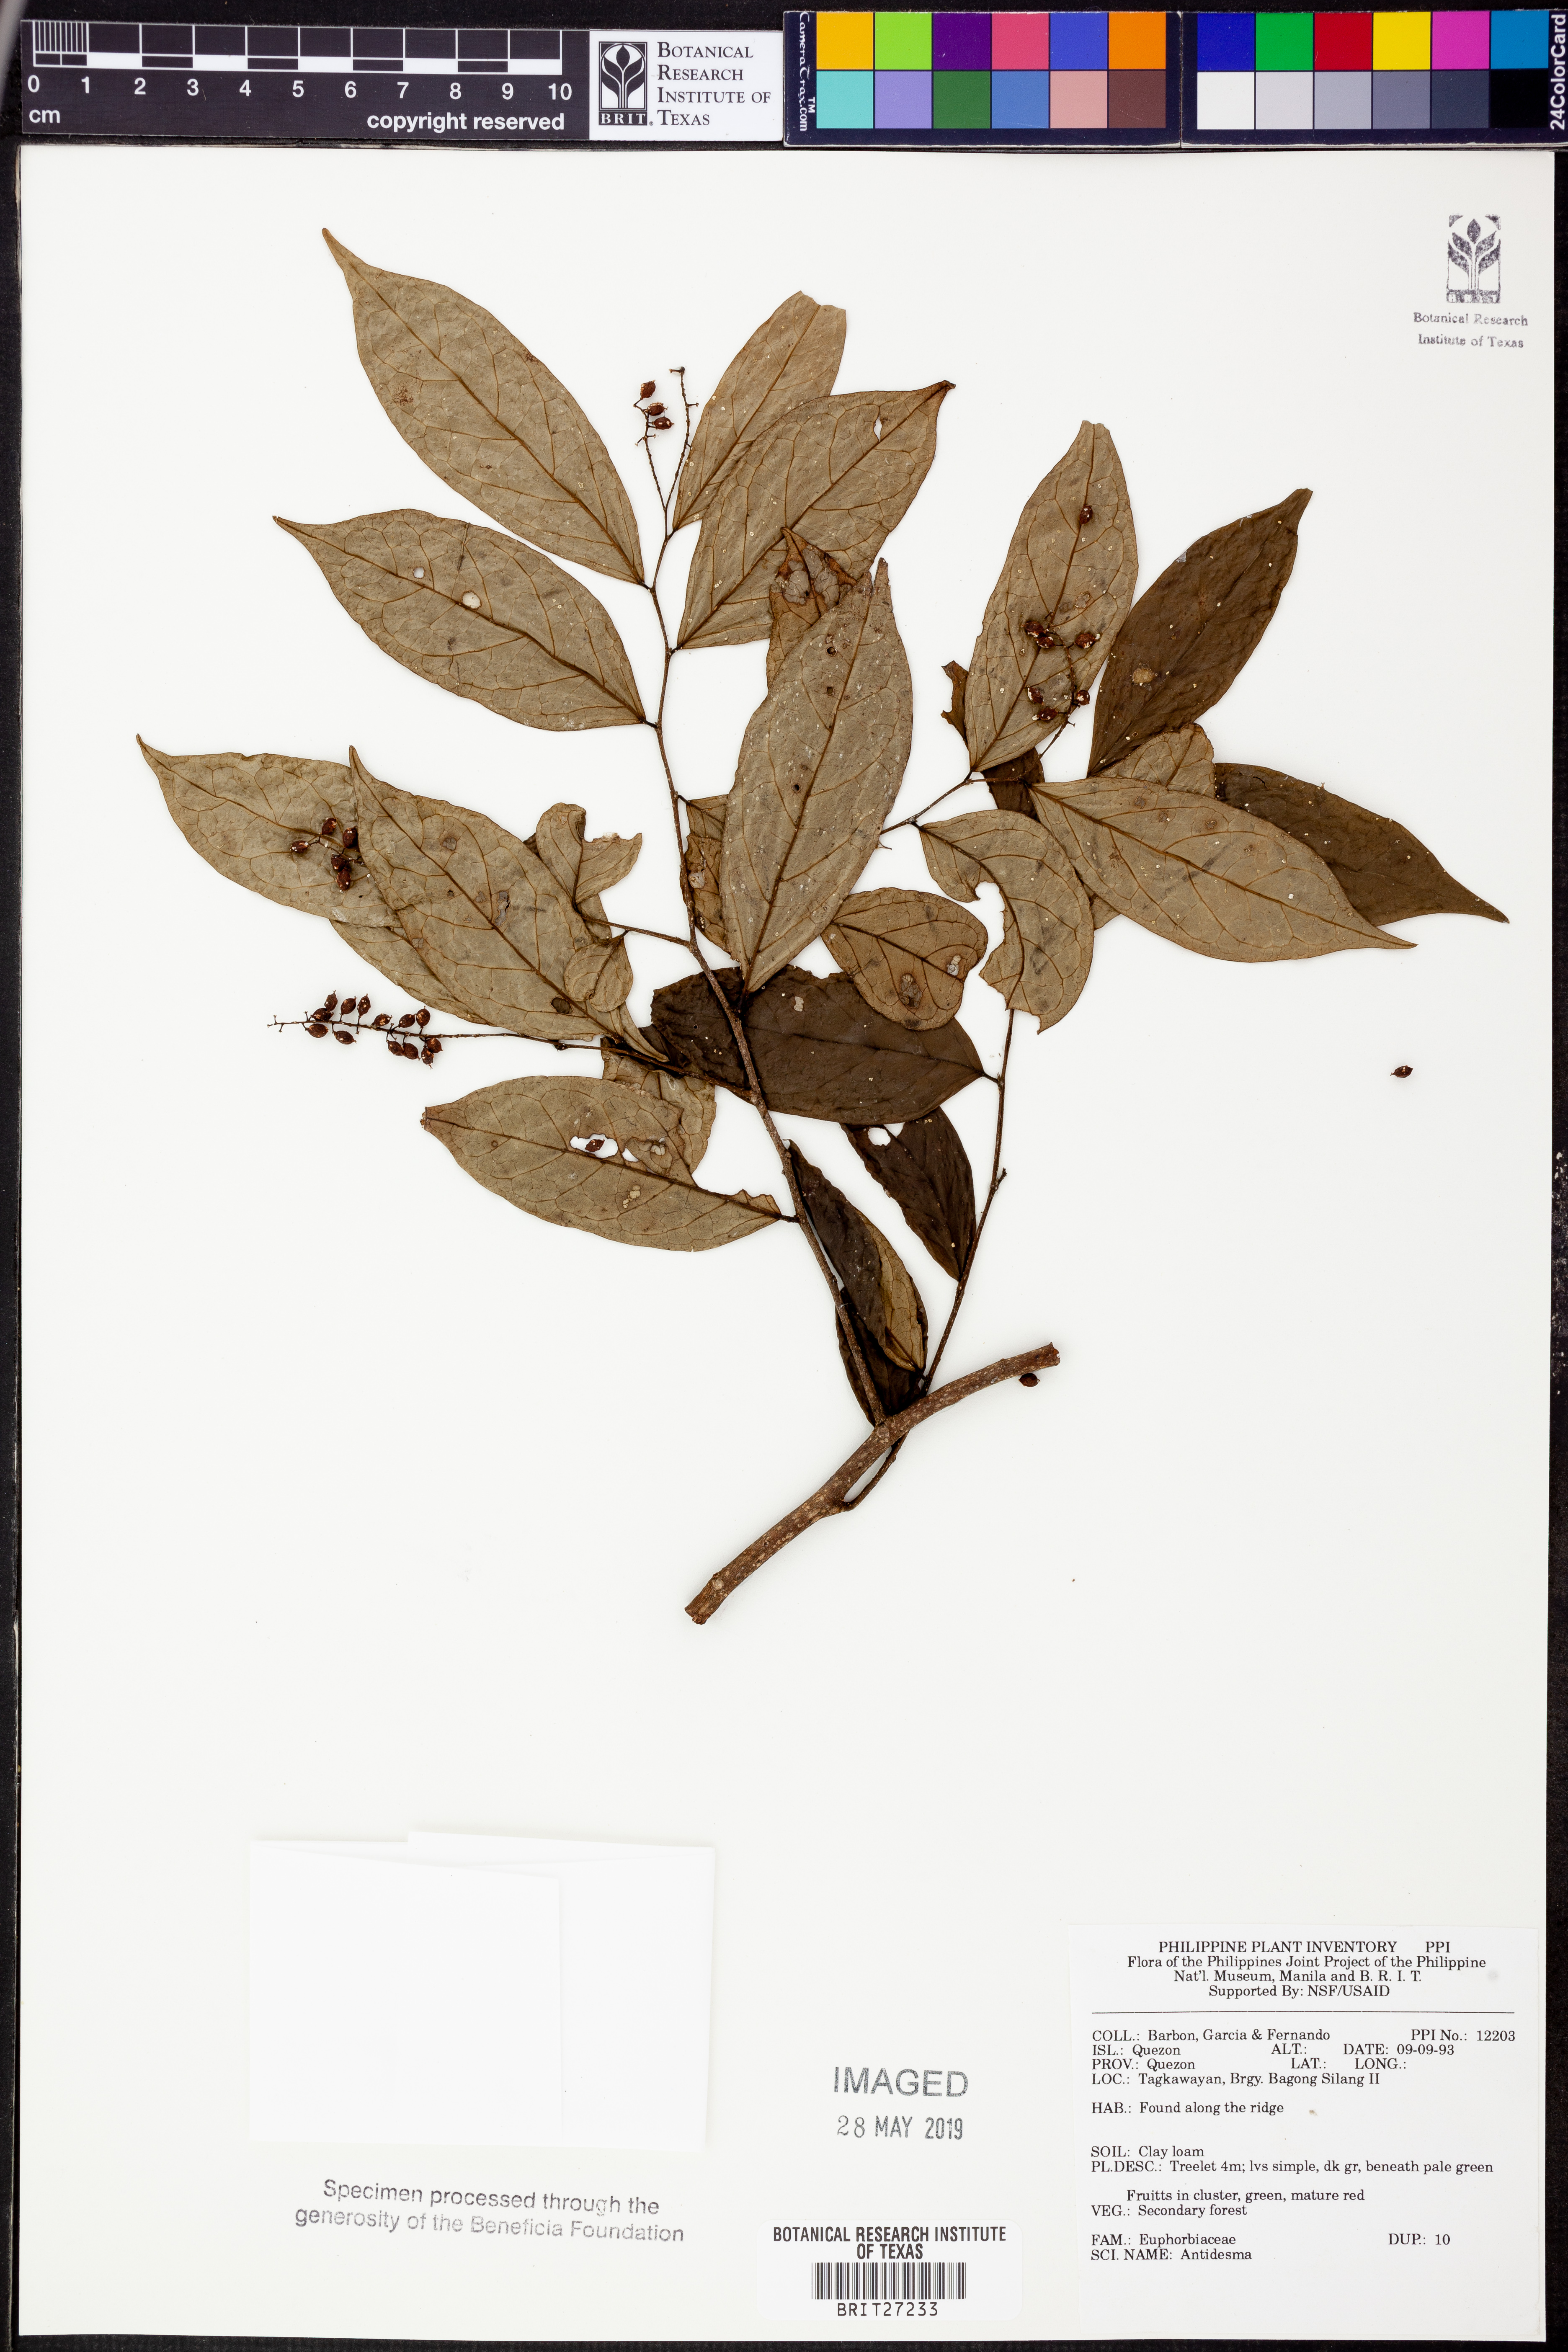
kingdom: Plantae
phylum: Tracheophyta
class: Magnoliopsida
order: Malpighiales
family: Phyllanthaceae
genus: Antidesma
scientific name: Antidesma
